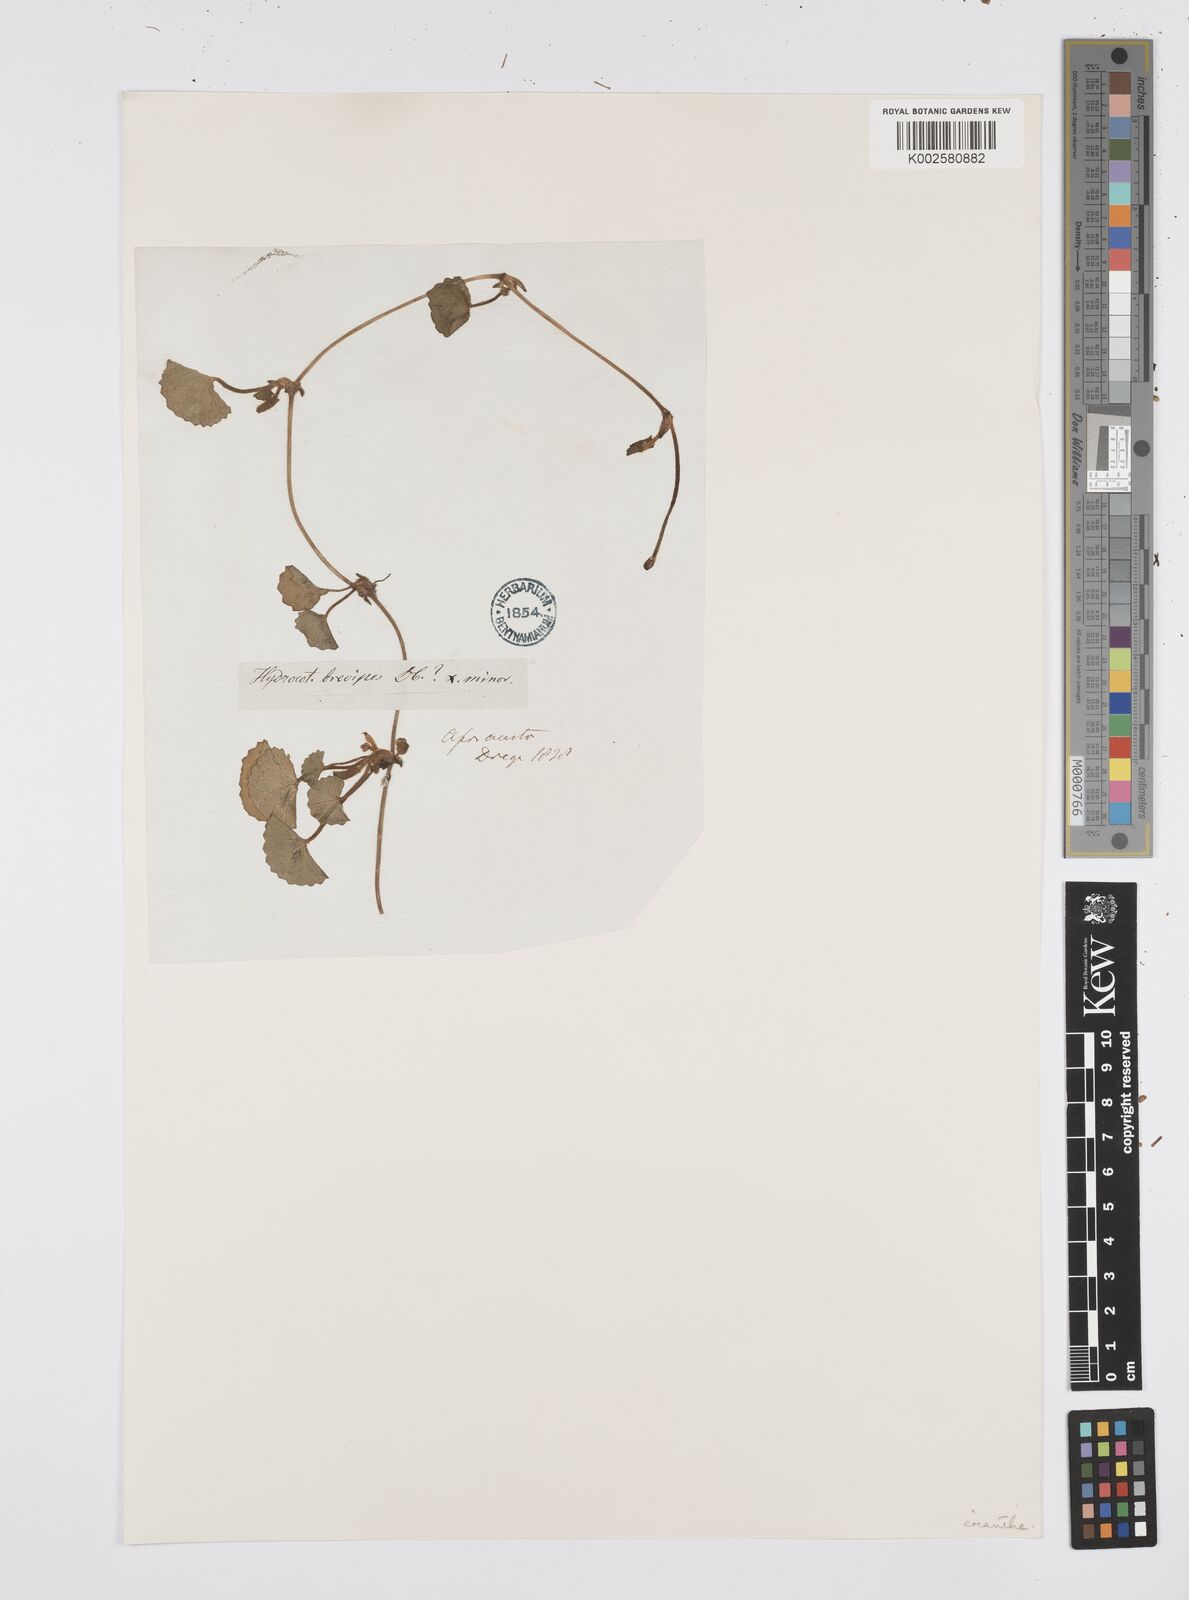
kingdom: Plantae
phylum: Tracheophyta
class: Magnoliopsida
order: Apiales
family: Apiaceae
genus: Centella
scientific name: Centella eriantha
